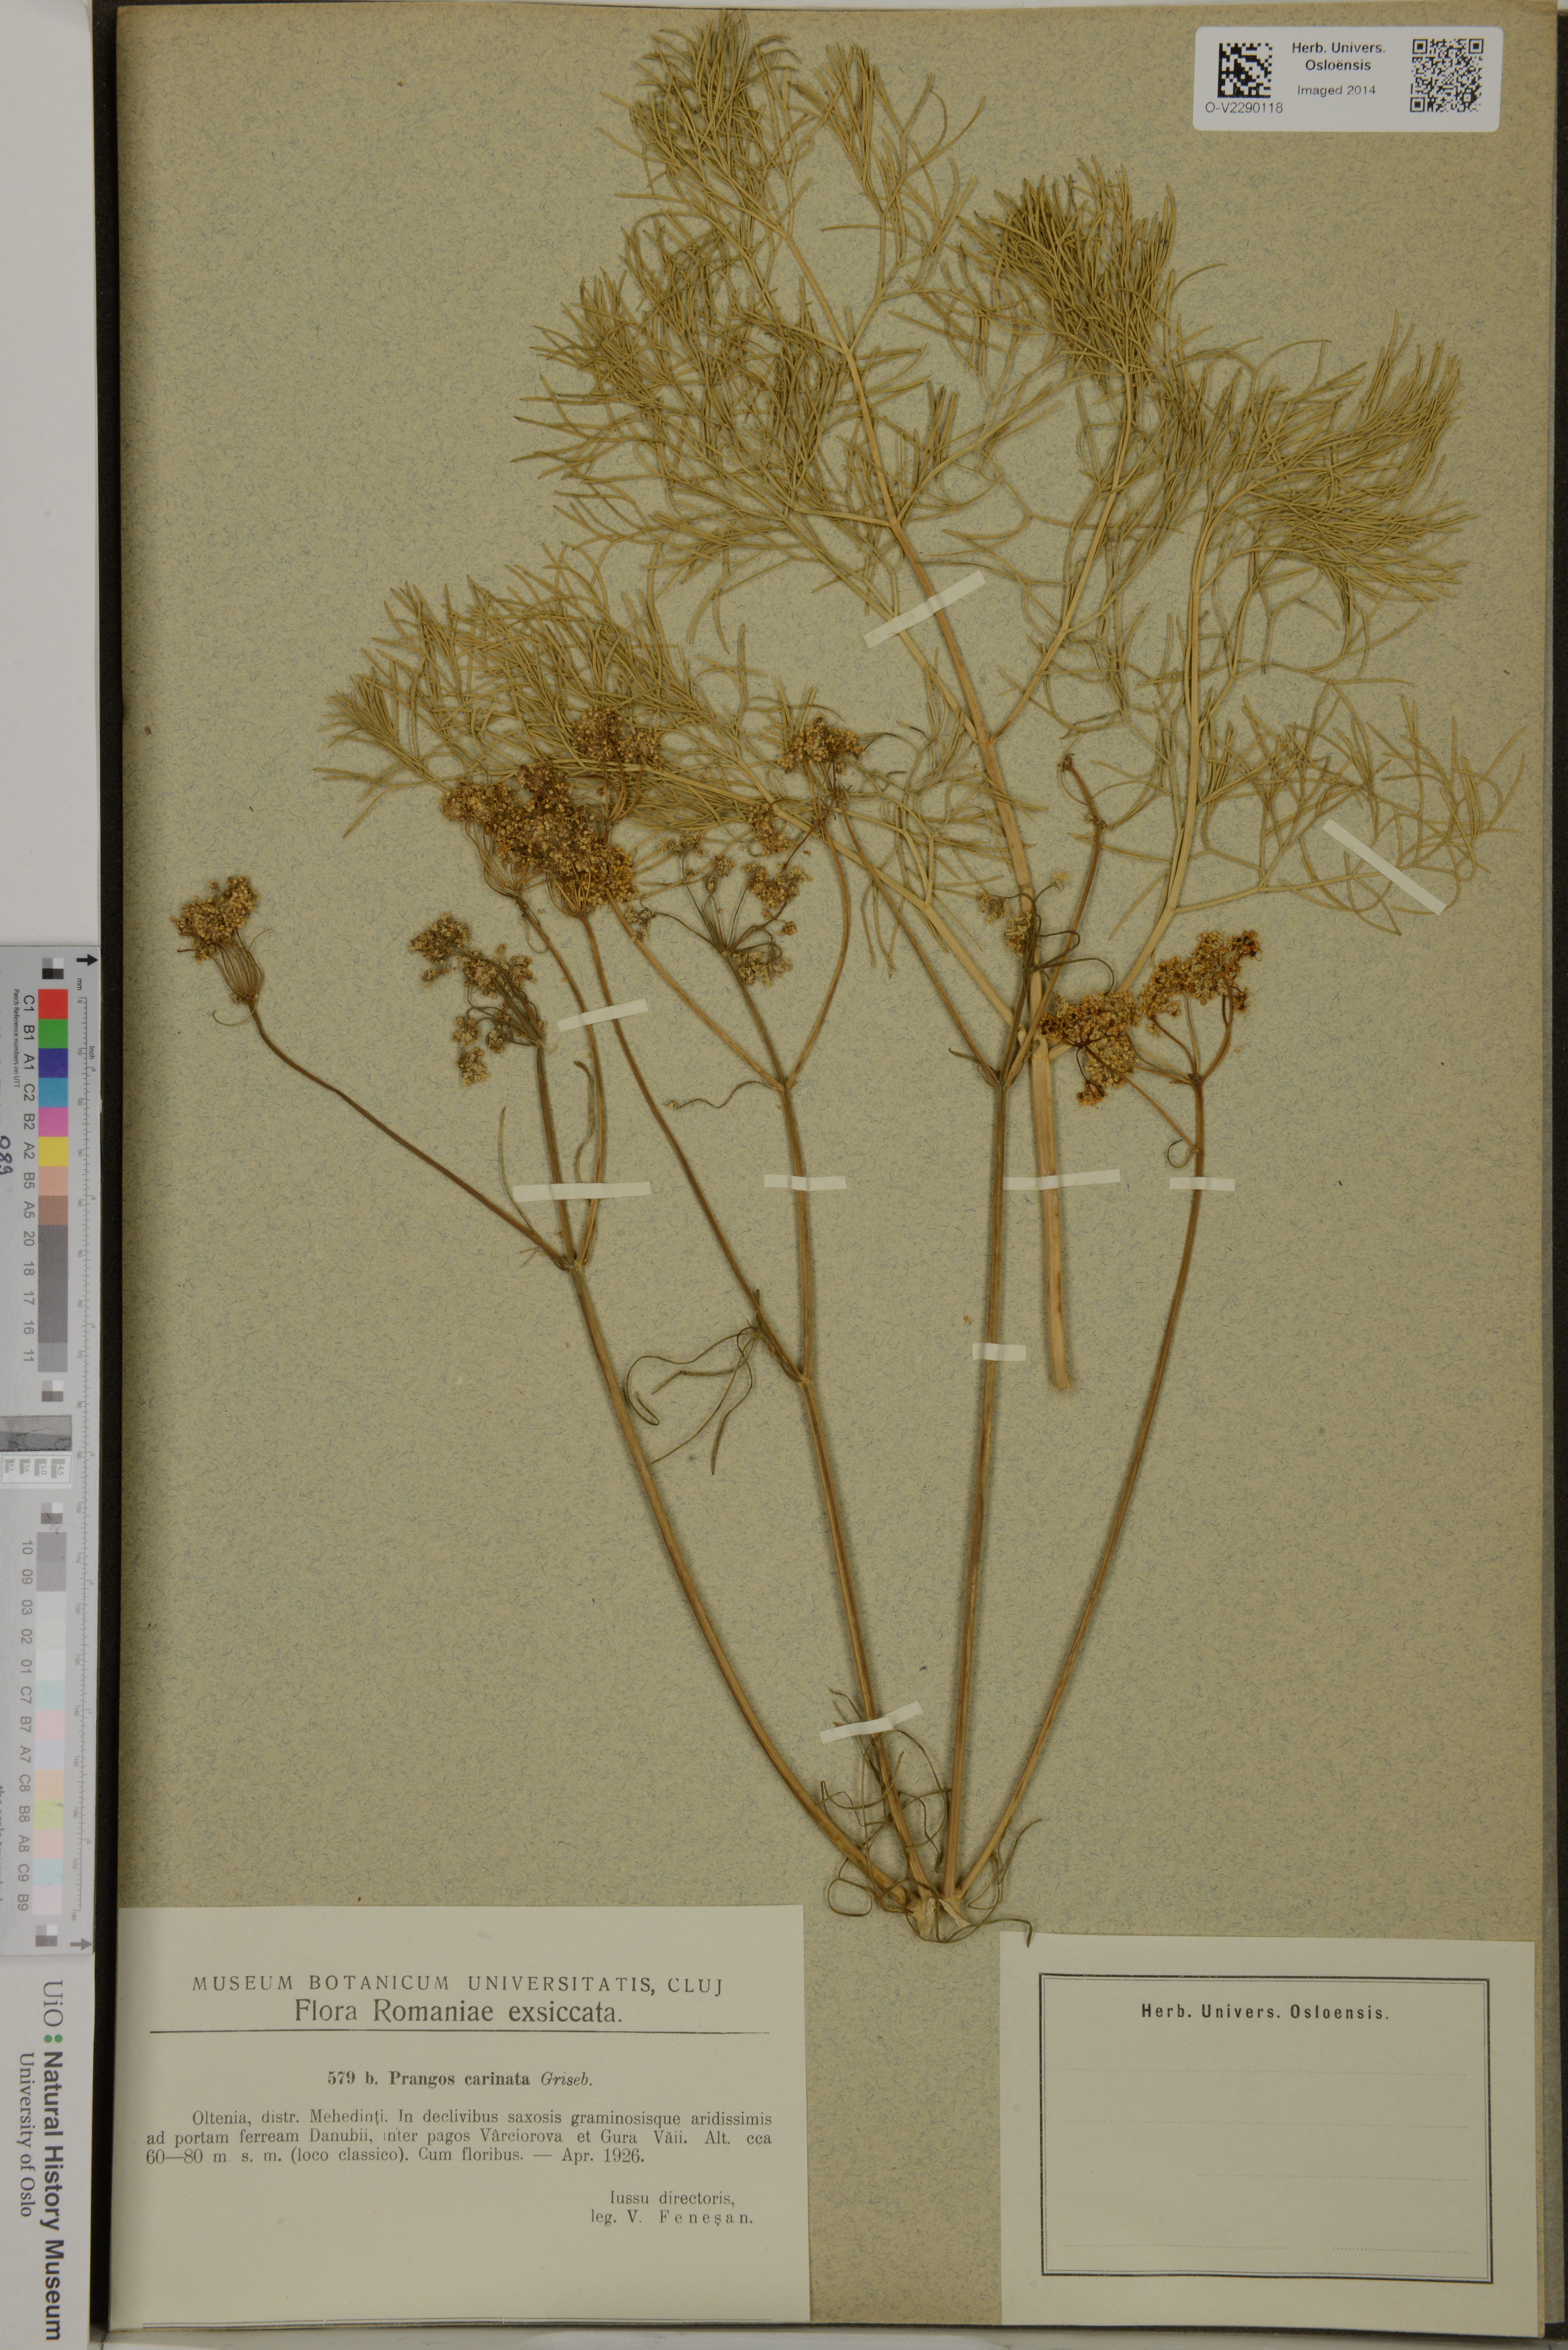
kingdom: Plantae
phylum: Tracheophyta
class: Magnoliopsida
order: Apiales
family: Apiaceae
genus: Prangos
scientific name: Prangos ferulacea
